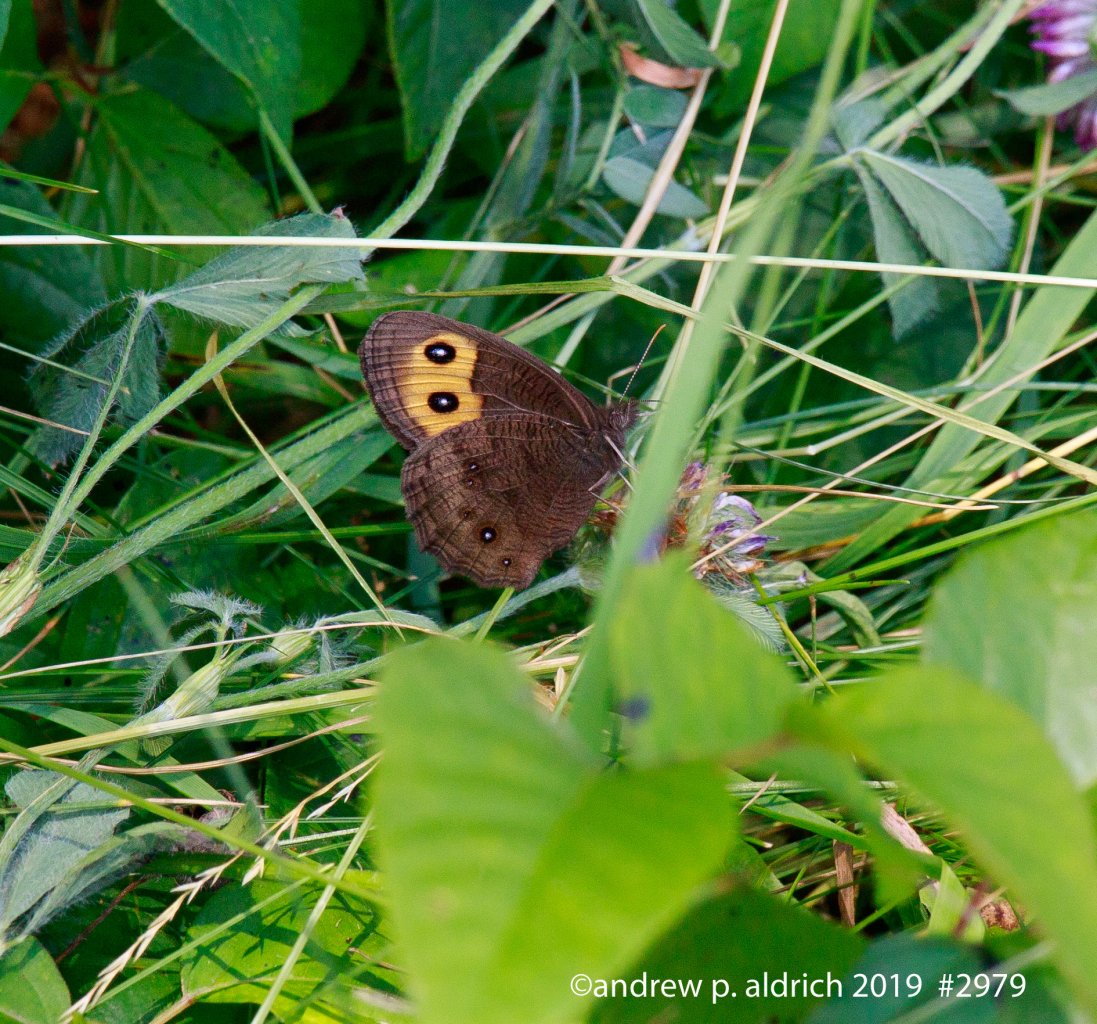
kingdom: Animalia
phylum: Arthropoda
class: Insecta
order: Lepidoptera
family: Nymphalidae
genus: Cercyonis
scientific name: Cercyonis pegala
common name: Common Wood-Nymph
